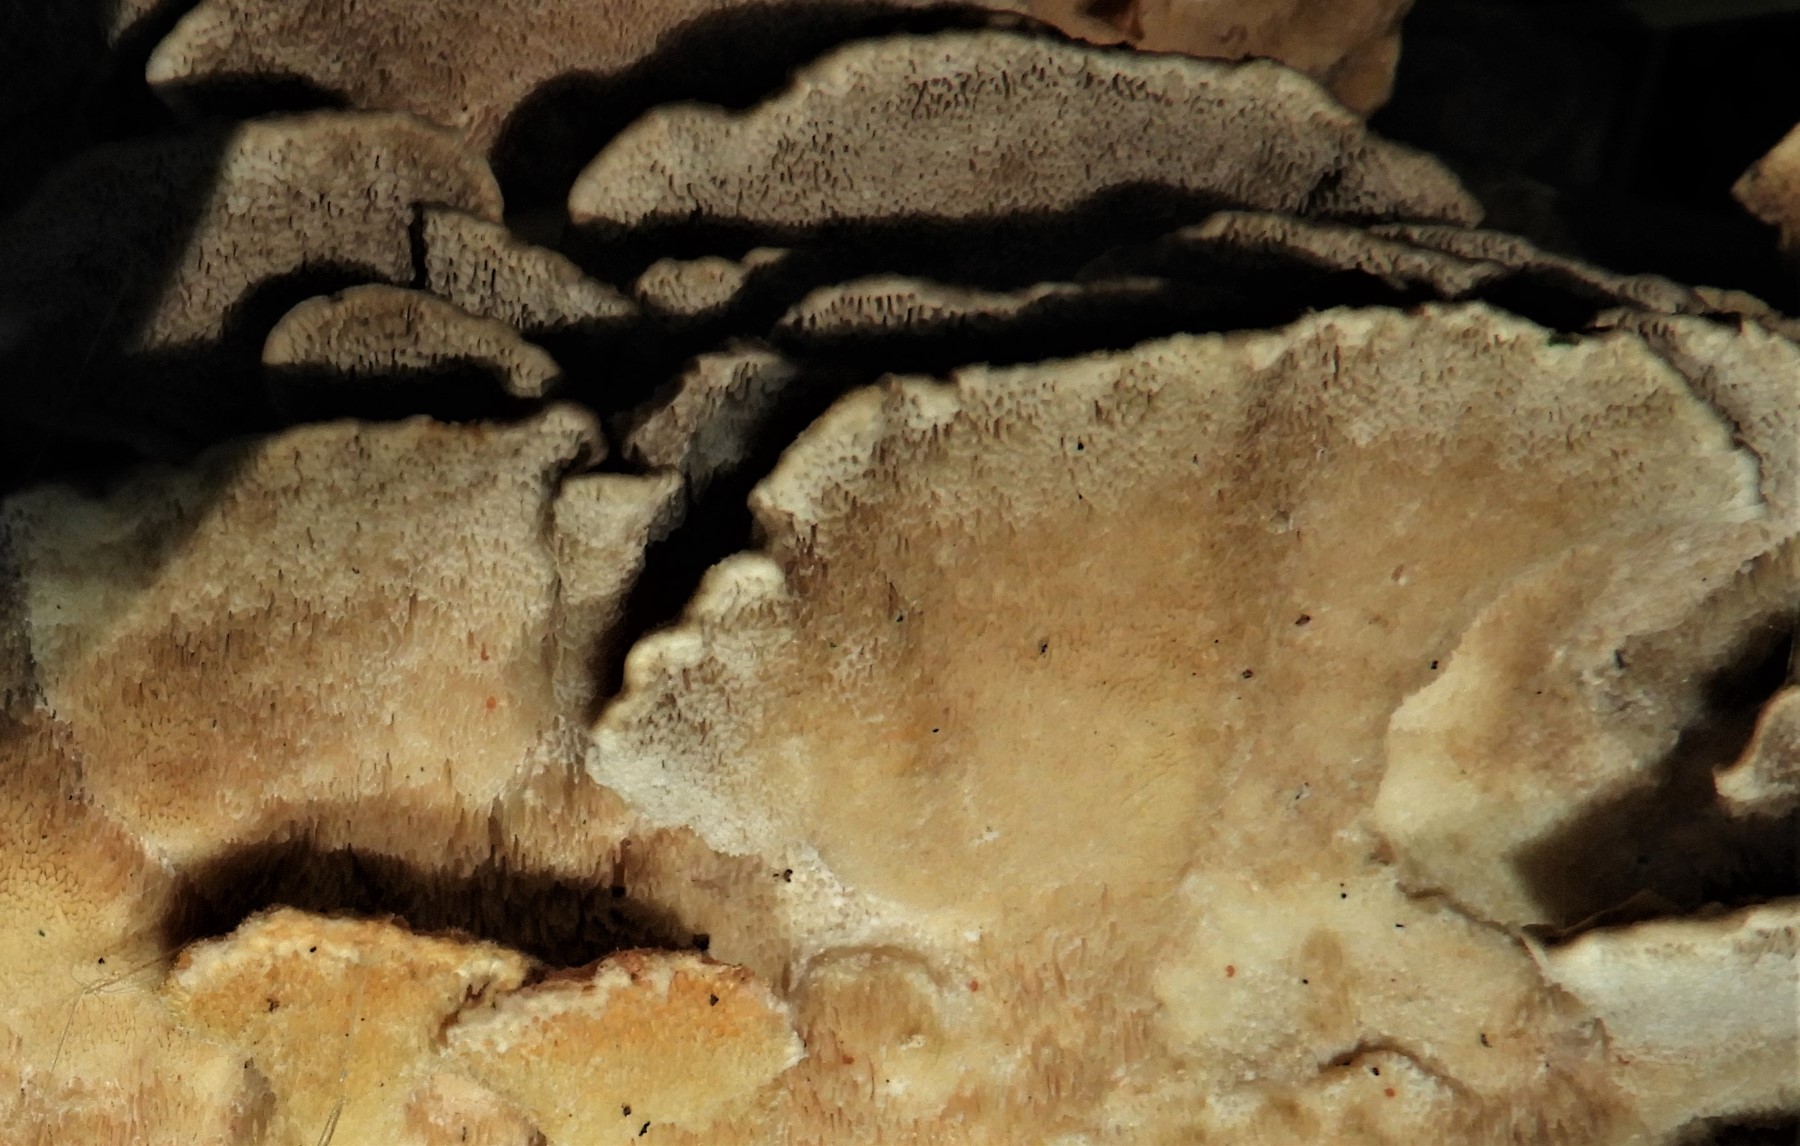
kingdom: Fungi
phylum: Basidiomycota
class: Agaricomycetes
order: Polyporales
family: Polyporaceae
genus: Trametes
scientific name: Trametes versicolor
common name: broget læderporesvamp
